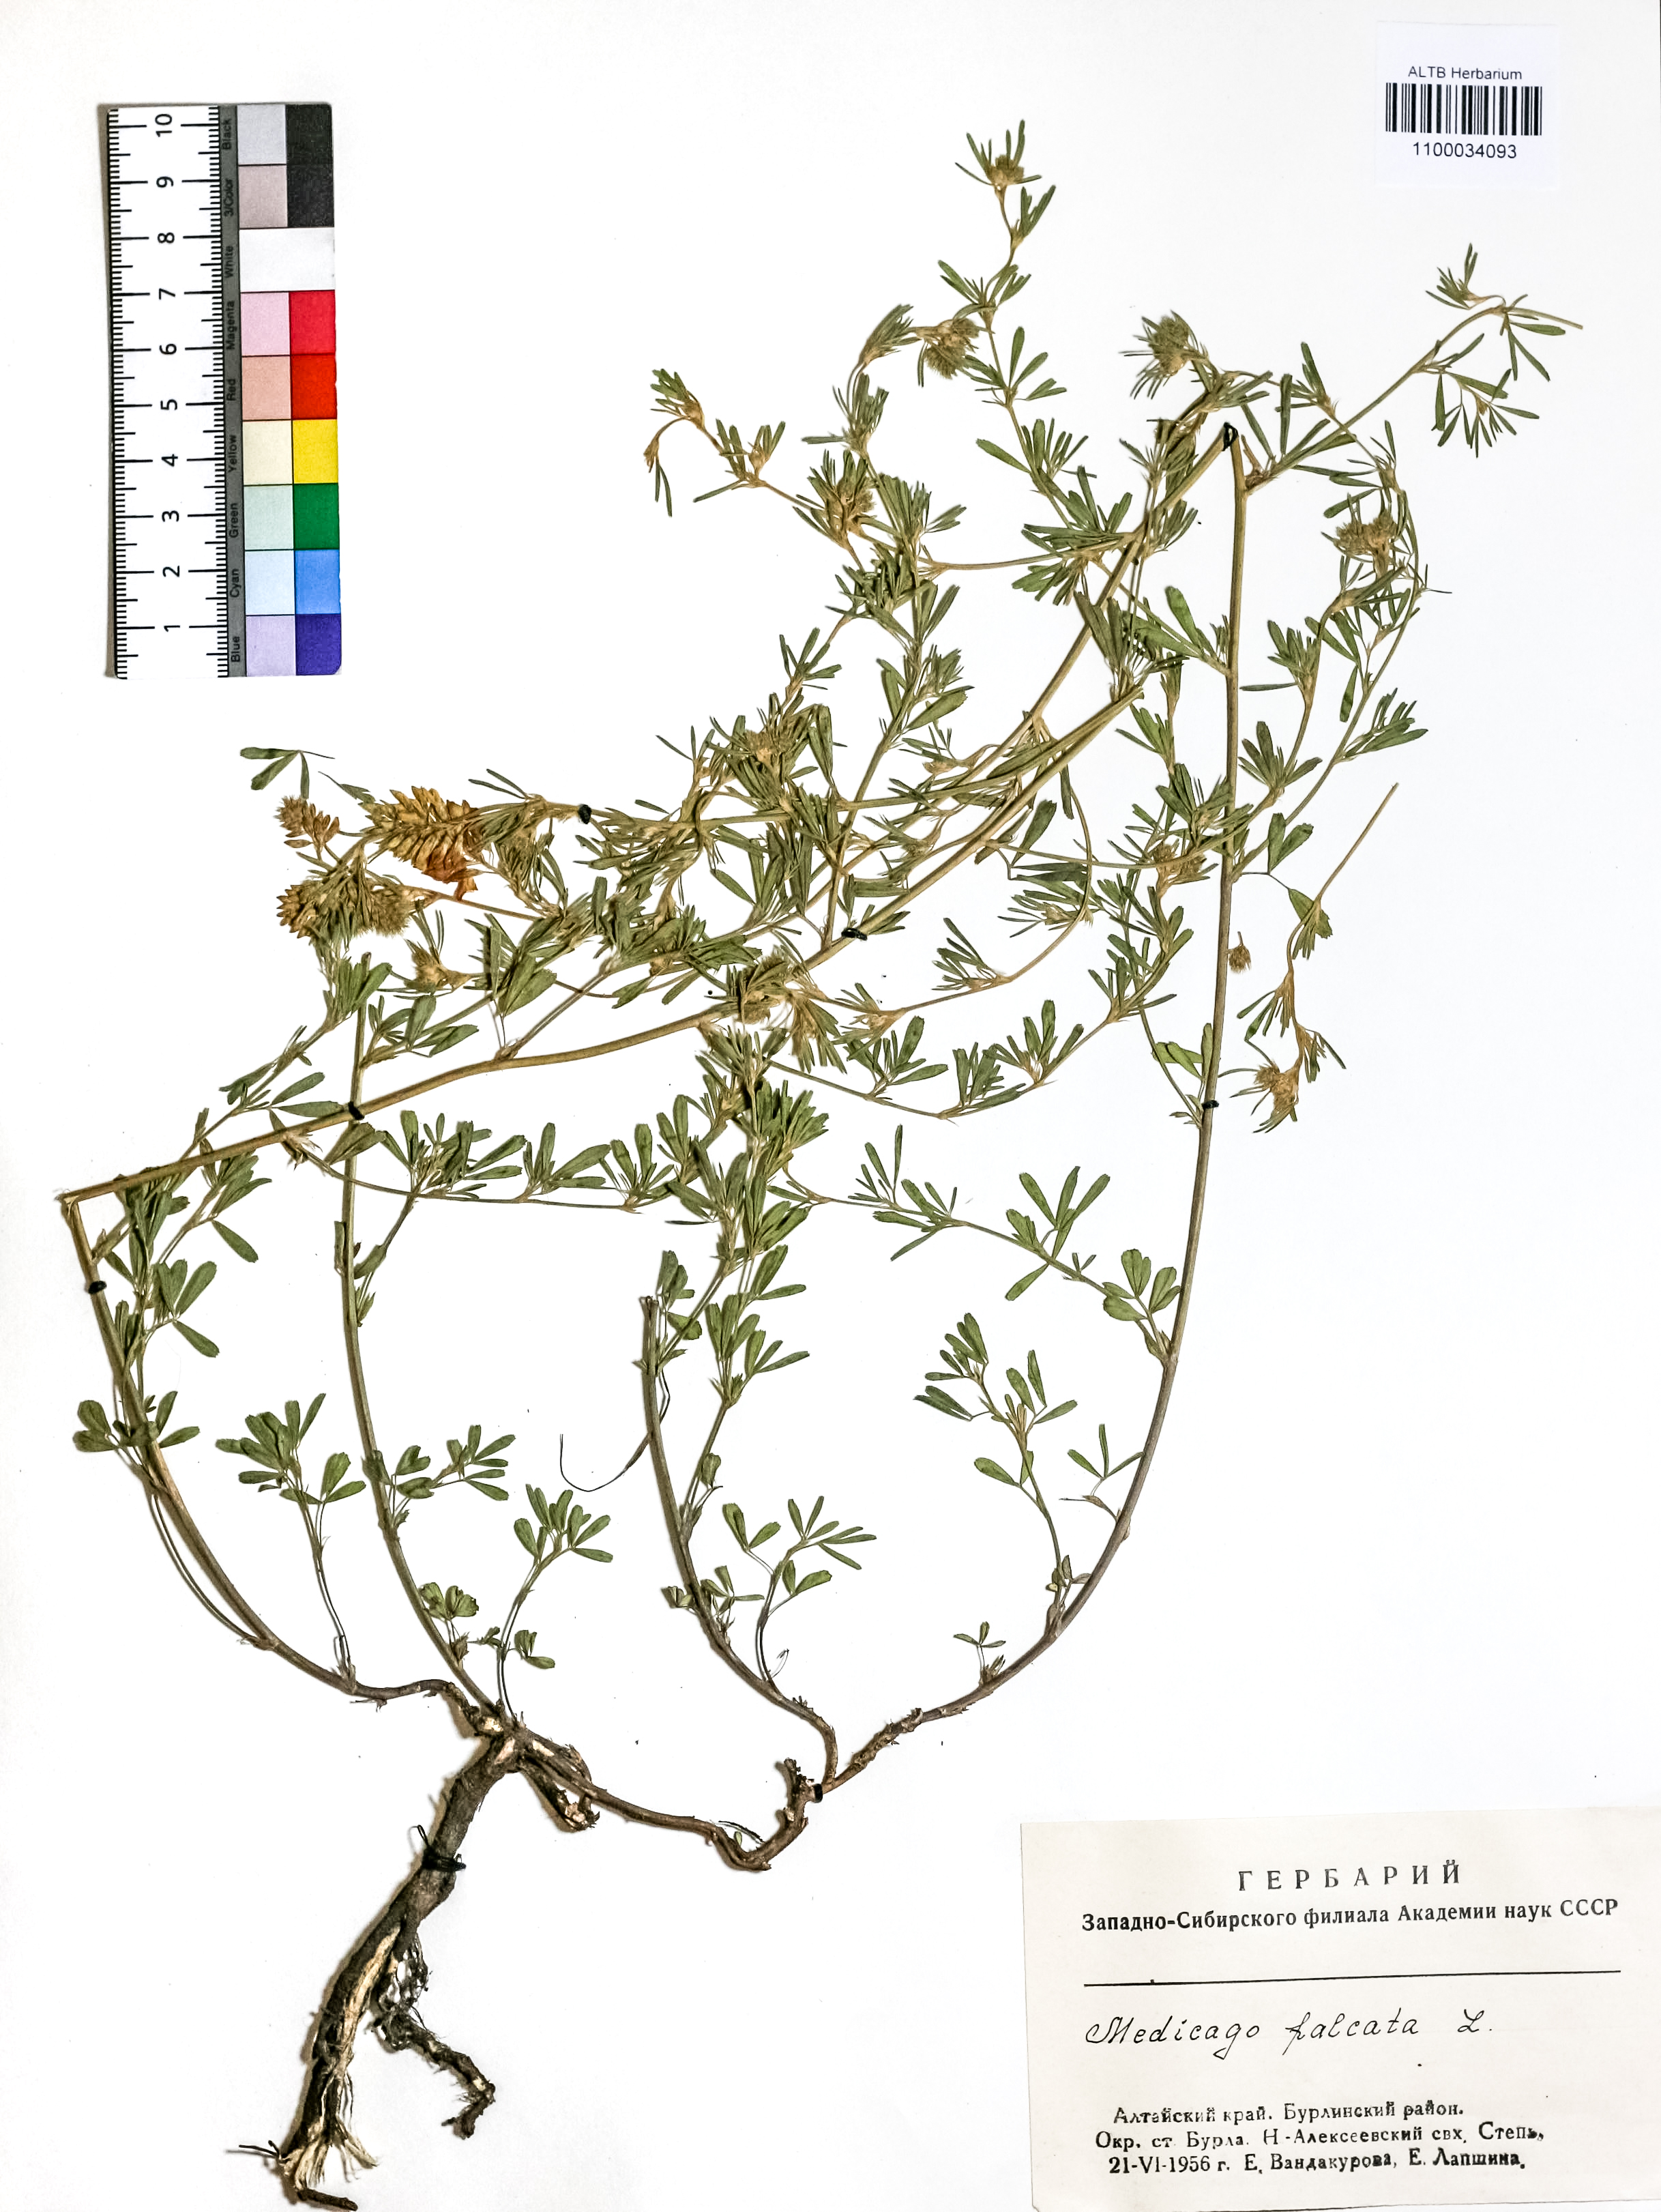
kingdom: Plantae
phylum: Tracheophyta
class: Magnoliopsida
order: Fabales
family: Fabaceae
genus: Medicago
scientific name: Medicago falcata
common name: Sickle medick
